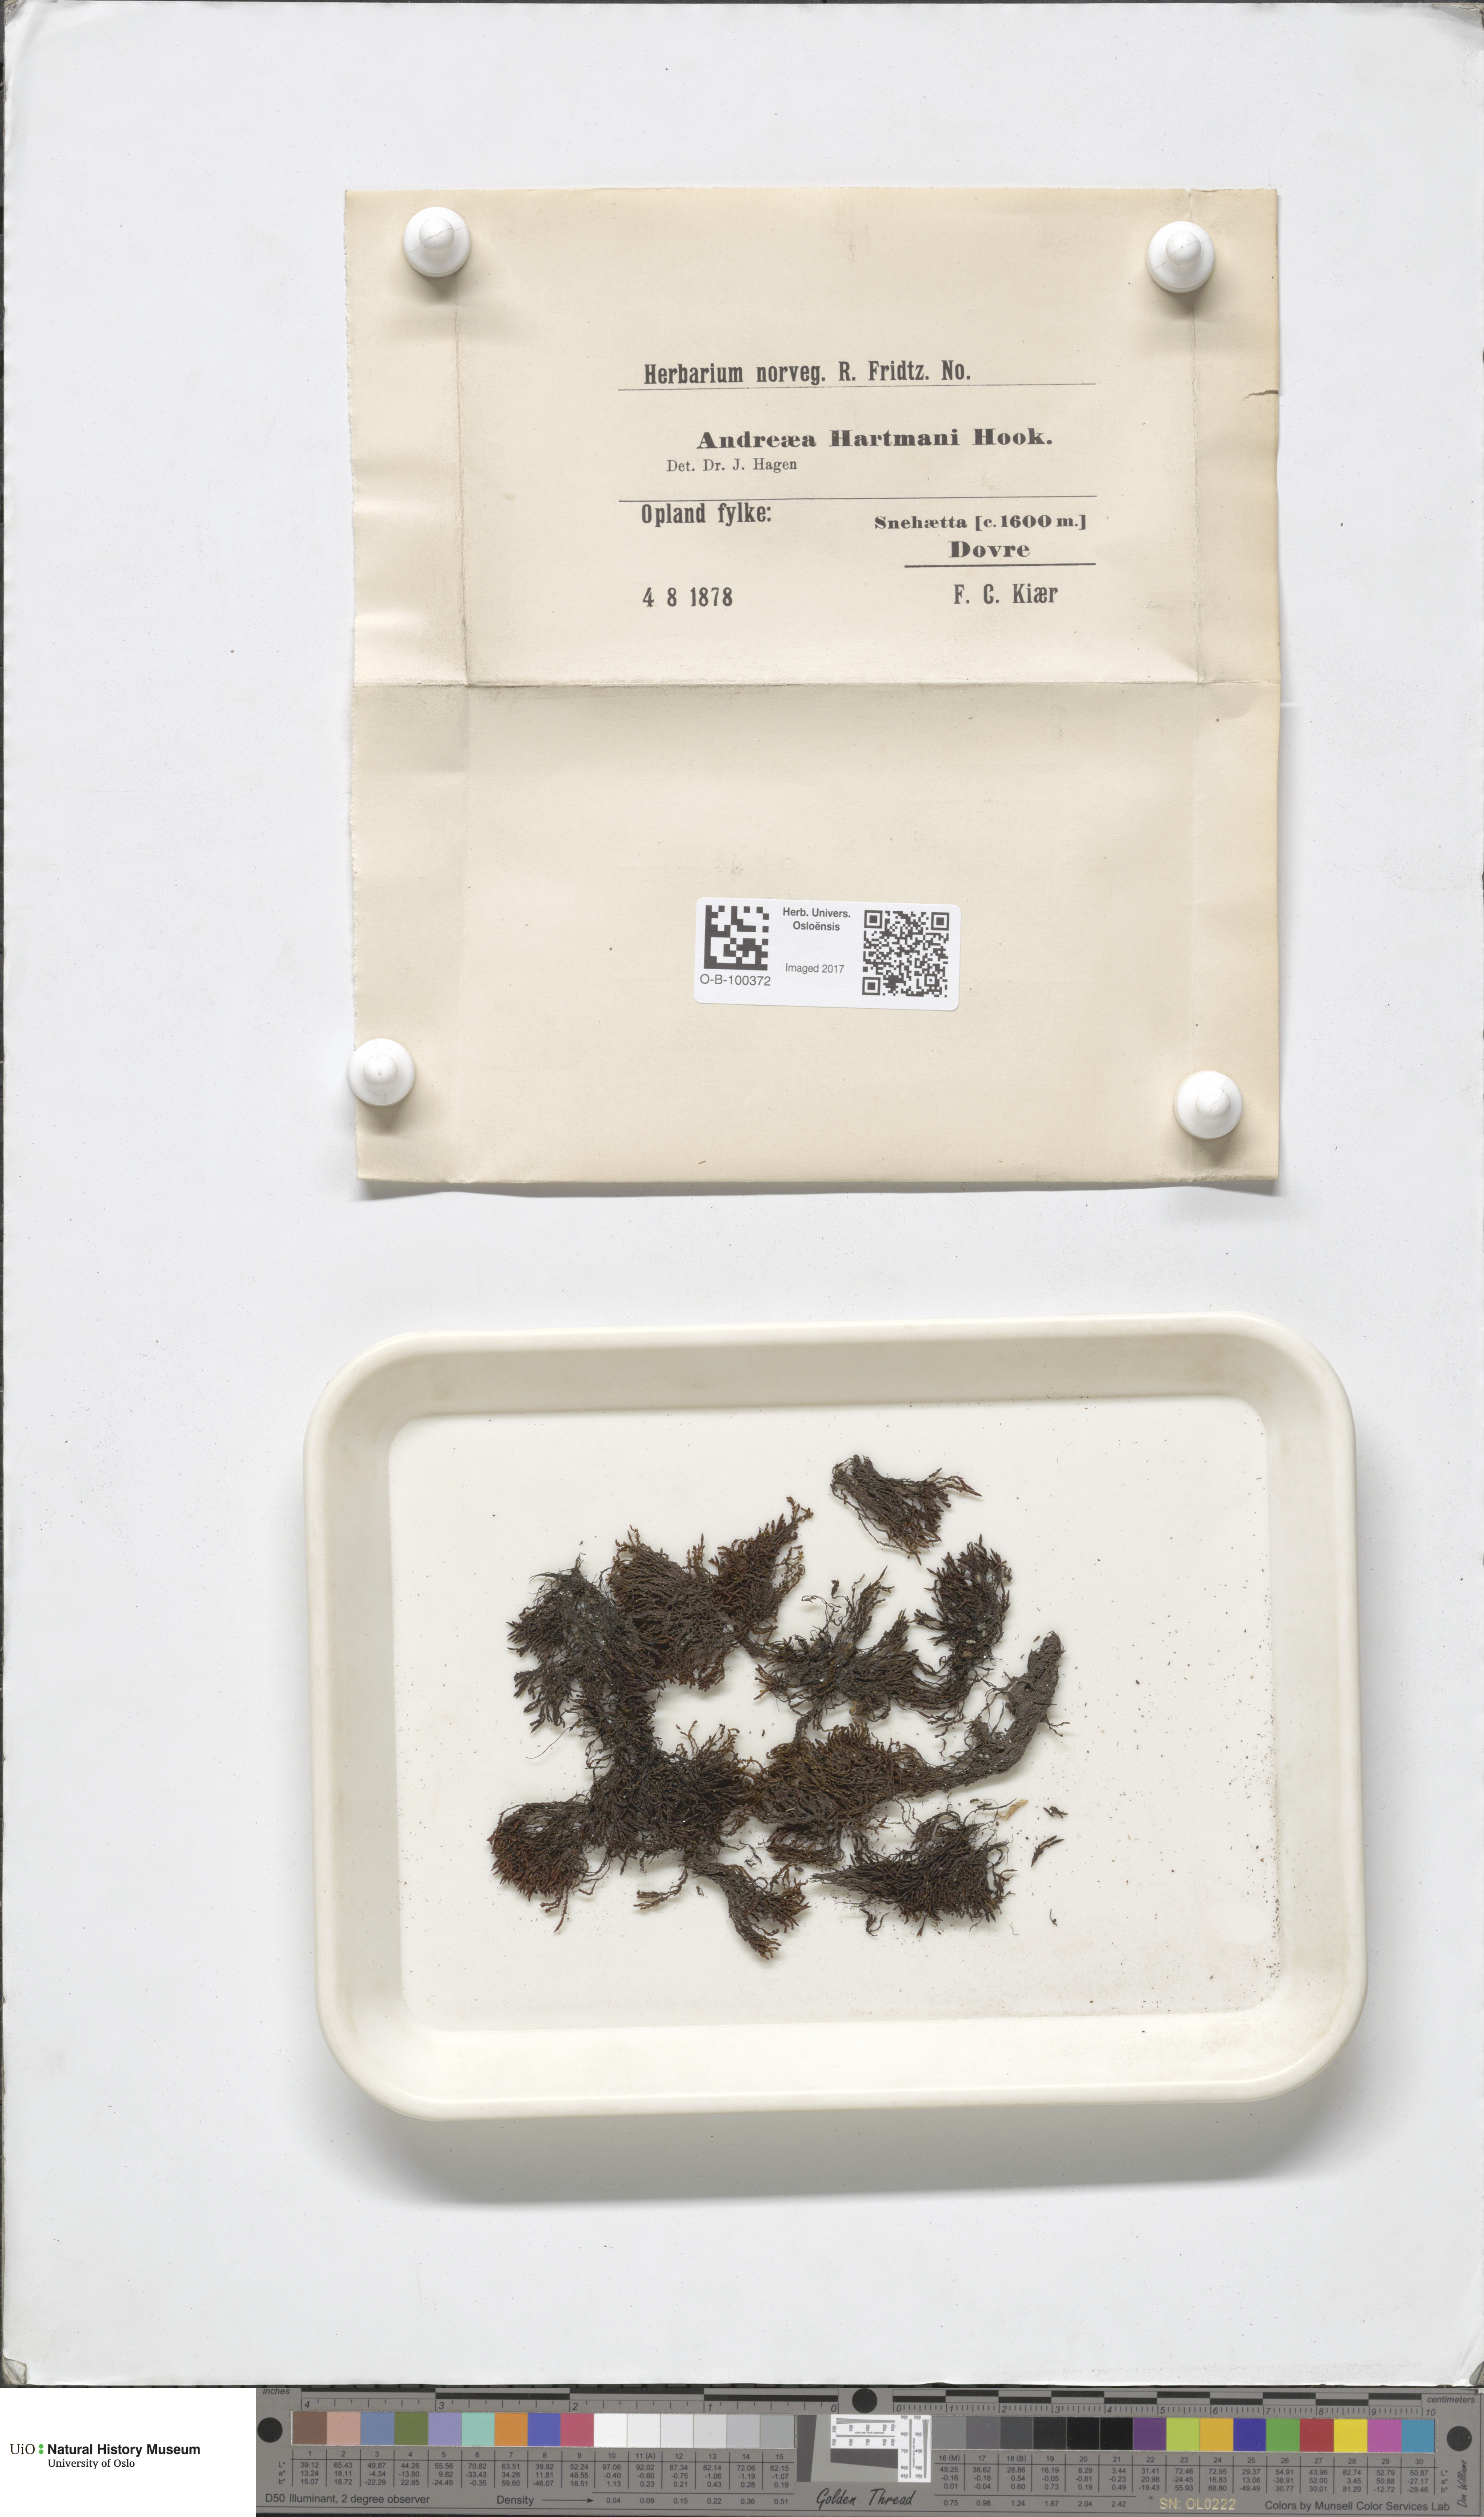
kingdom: Plantae
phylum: Bryophyta
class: Andreaeopsida
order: Andreaeales
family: Andreaeaceae
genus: Andreaea
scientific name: Andreaea alpina
